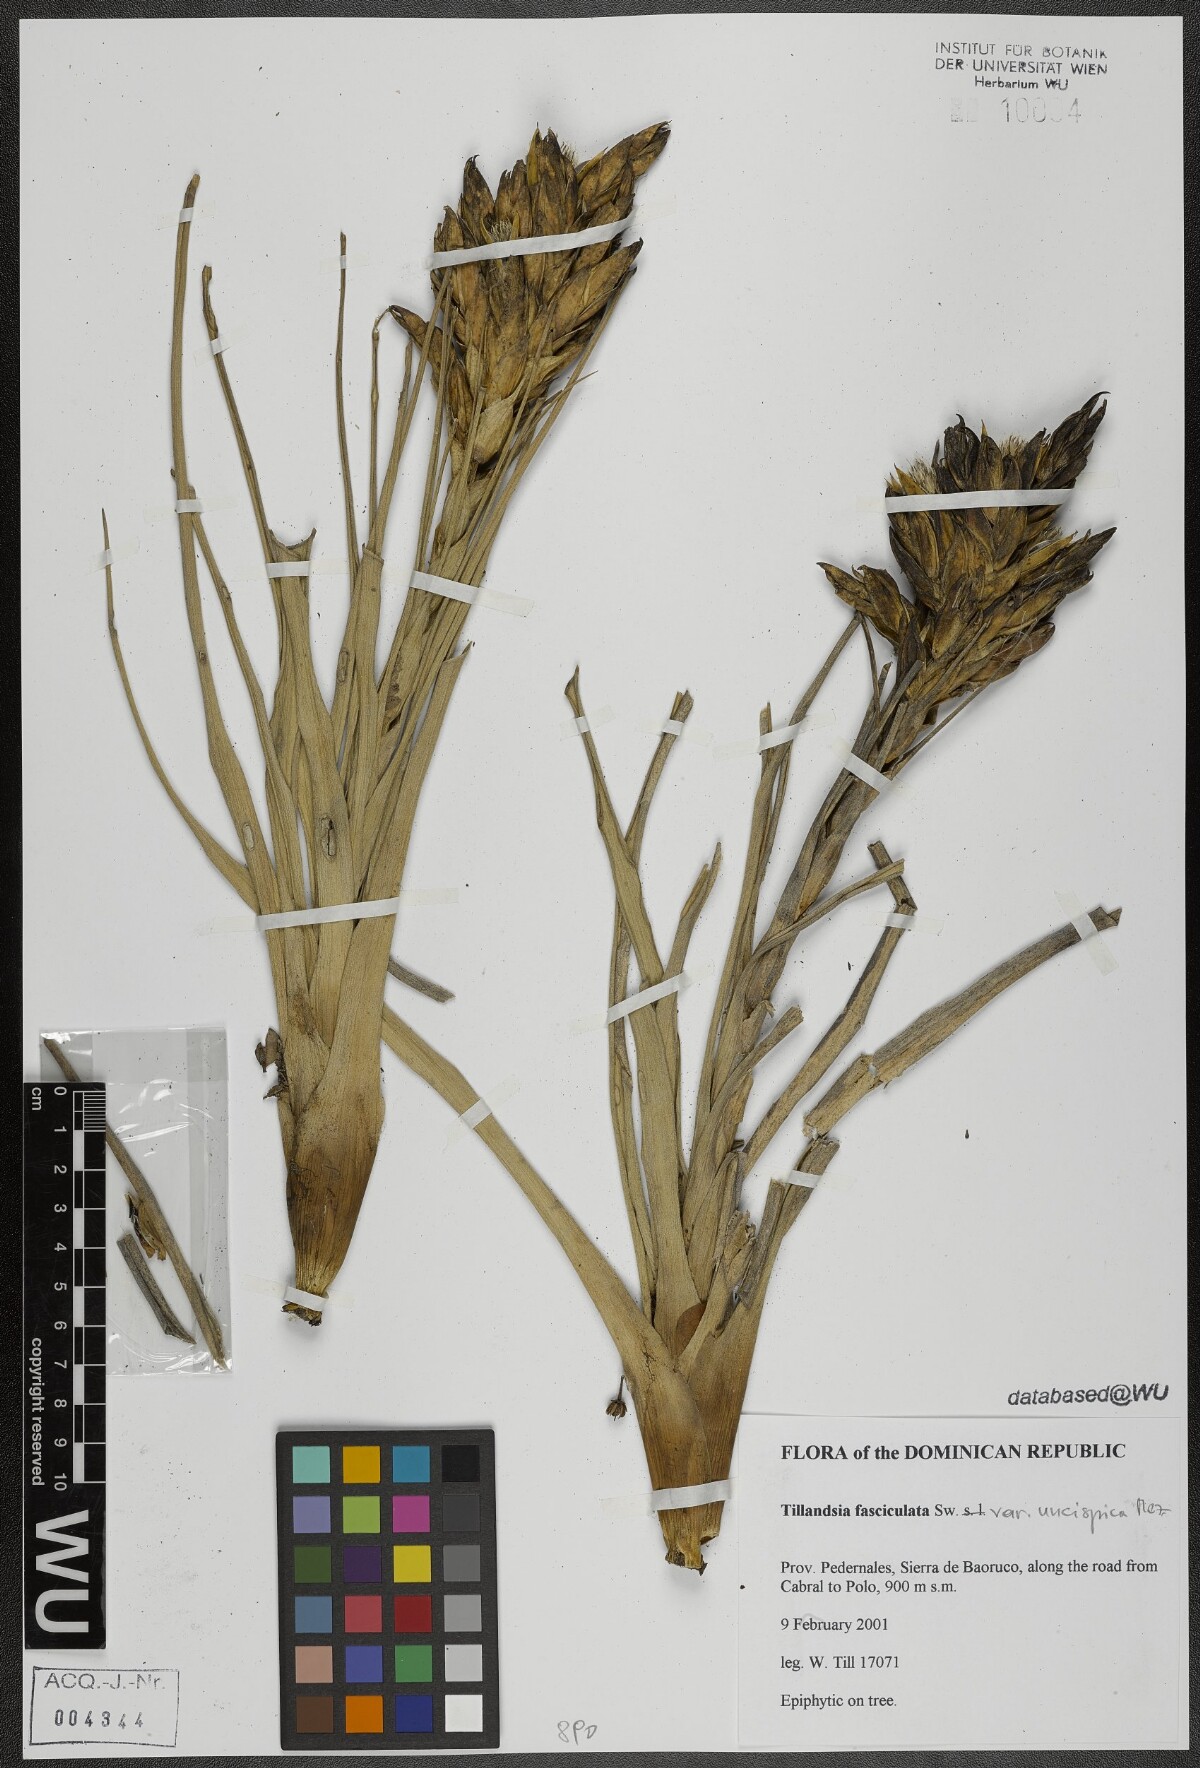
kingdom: Plantae
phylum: Tracheophyta
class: Liliopsida
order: Poales
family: Bromeliaceae
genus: Tillandsia
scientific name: Tillandsia fasciculata
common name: Giant airplant
